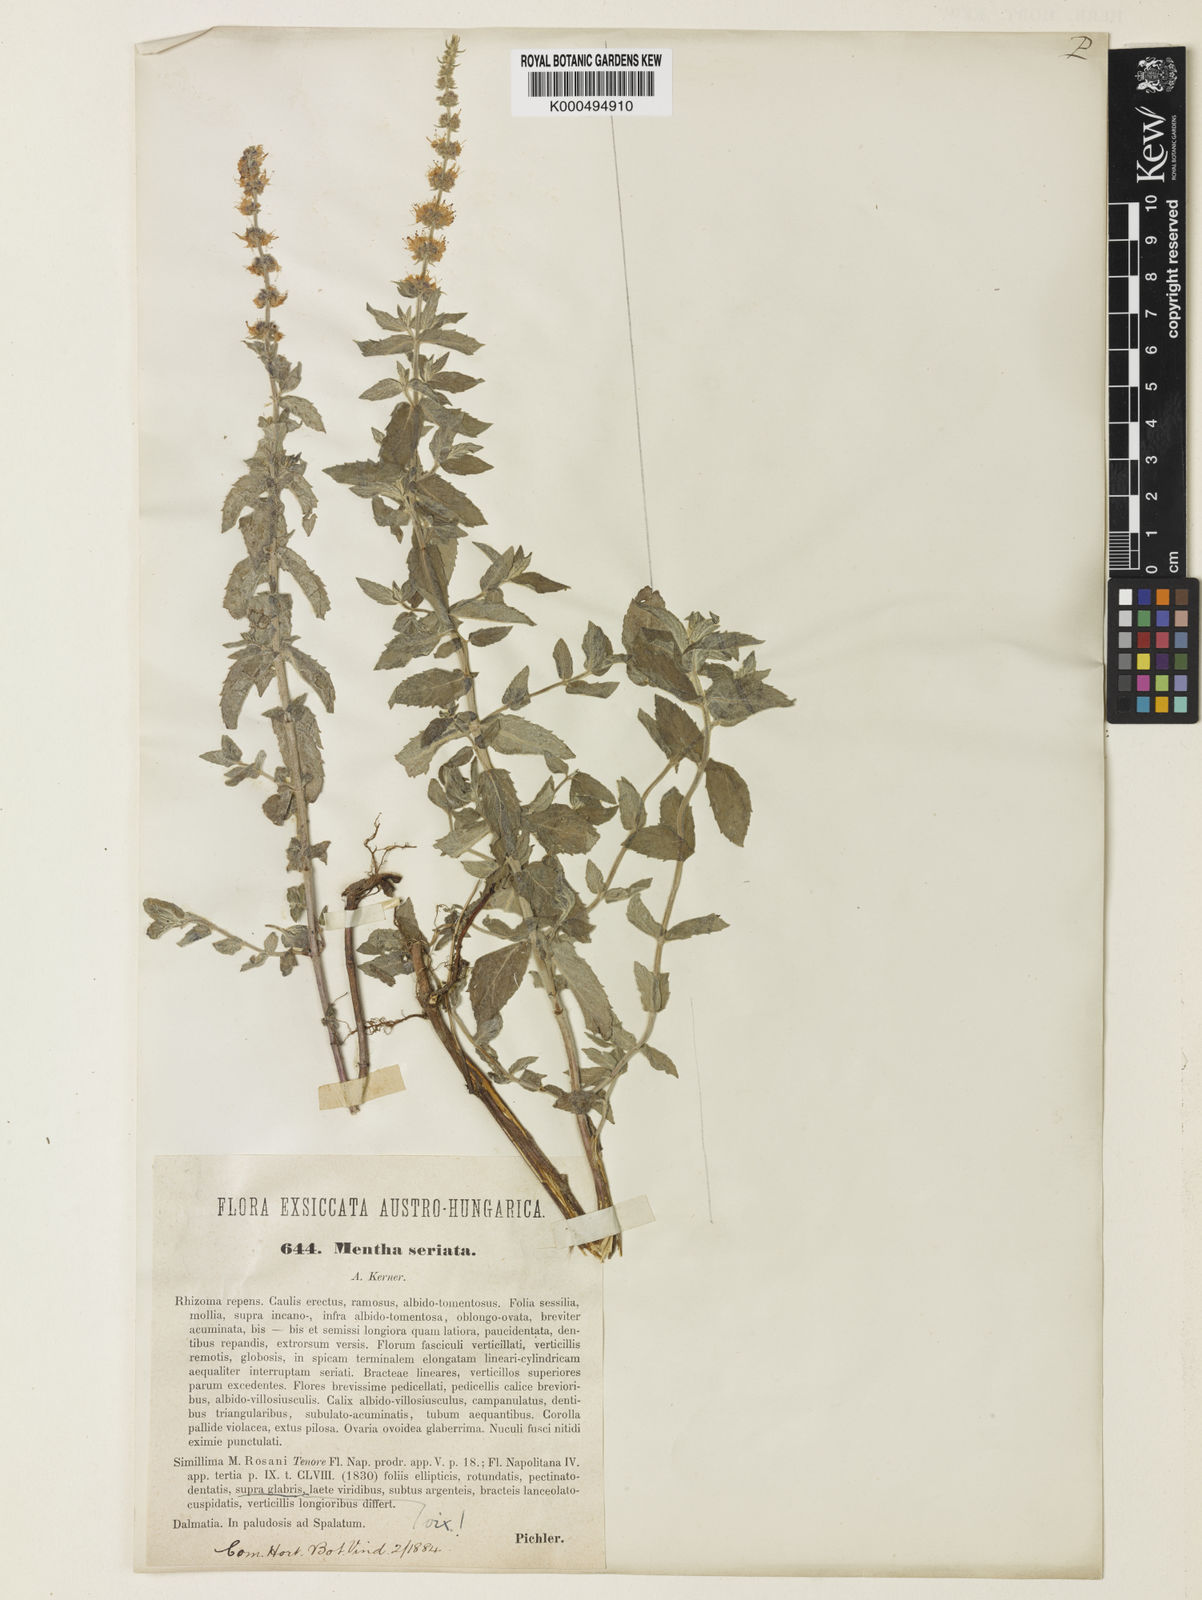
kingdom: Plantae
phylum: Tracheophyta
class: Magnoliopsida
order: Lamiales
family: Lamiaceae
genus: Mentha
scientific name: Mentha spicata
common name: Spearmint
